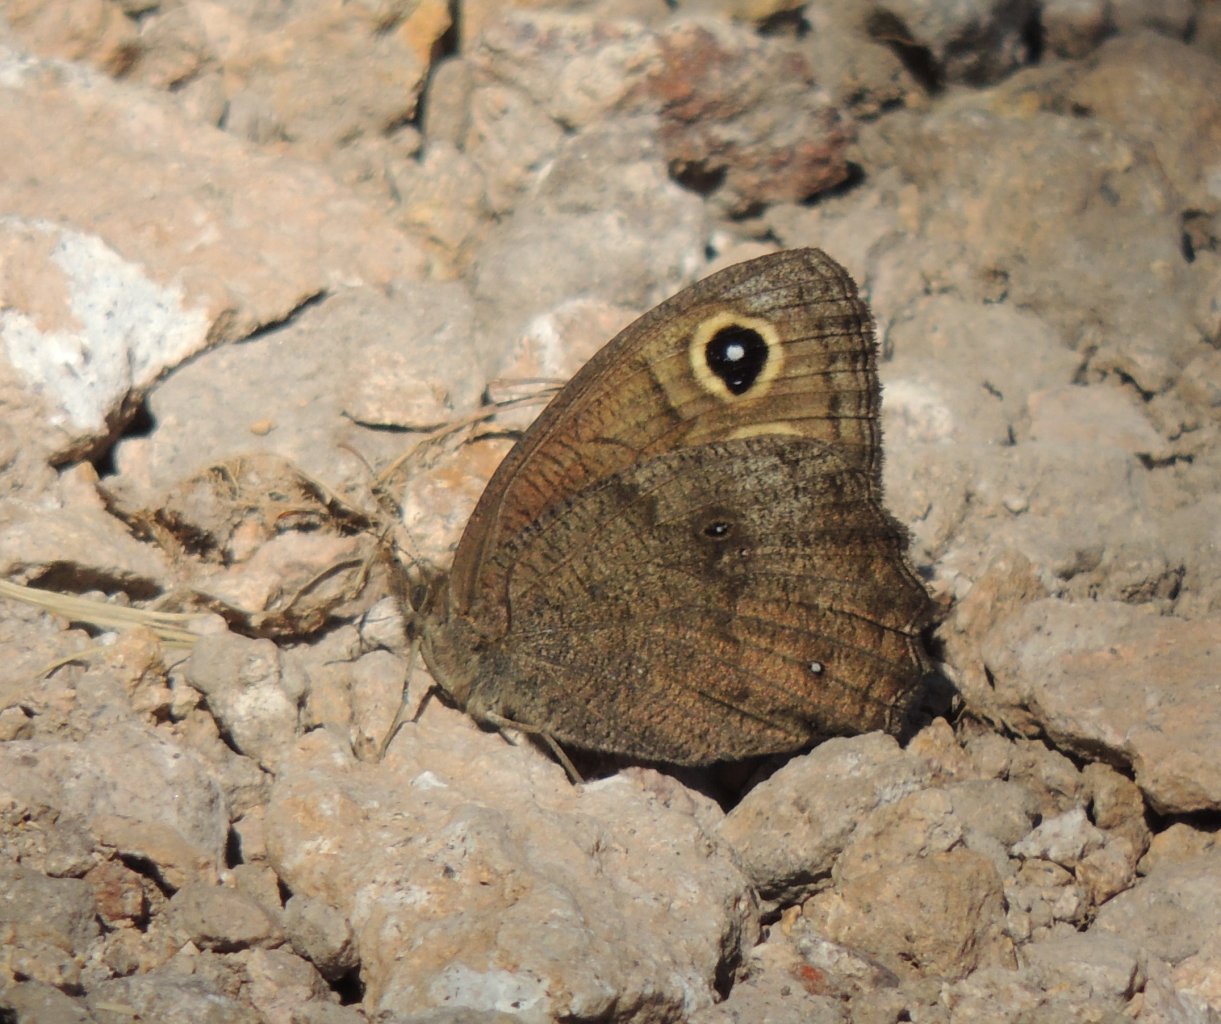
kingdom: Animalia
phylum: Arthropoda
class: Insecta
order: Lepidoptera
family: Nymphalidae
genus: Cercyonis
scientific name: Cercyonis pegala
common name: Common Wood-Nymph
